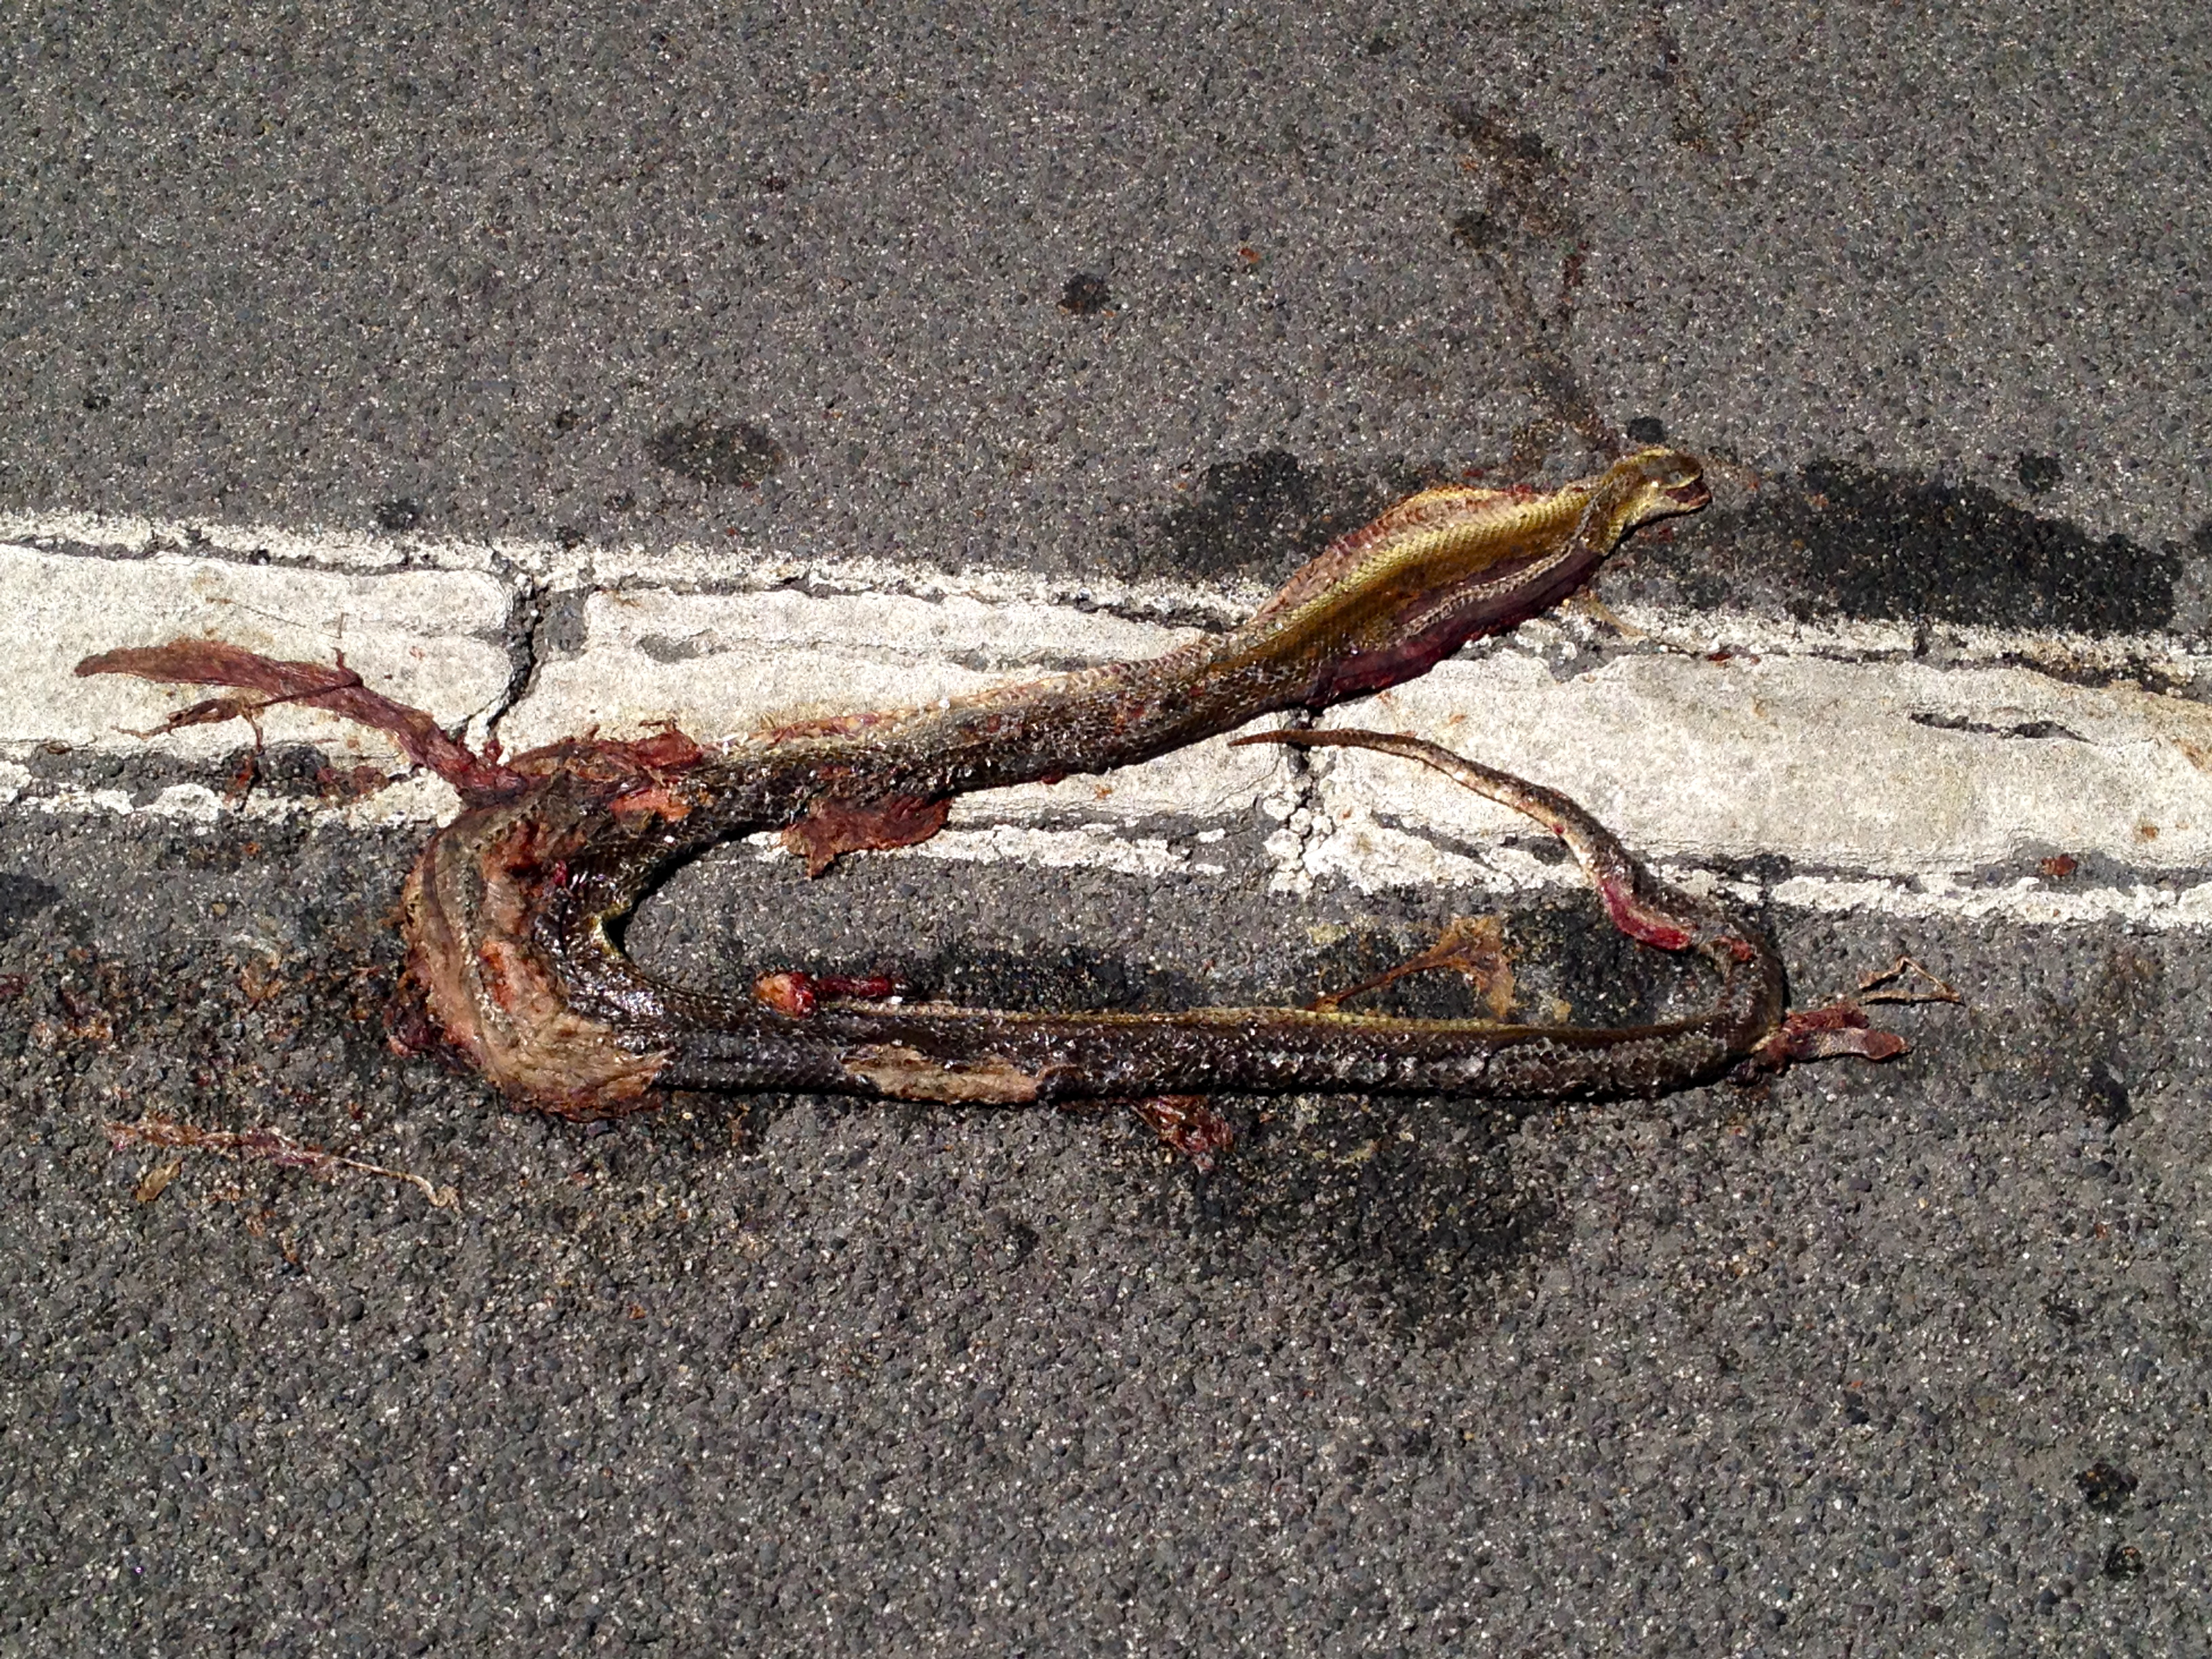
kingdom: Animalia
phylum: Chordata
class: Squamata
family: Colubridae
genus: Zamenis
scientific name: Zamenis longissimus
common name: Aesculapean snake
